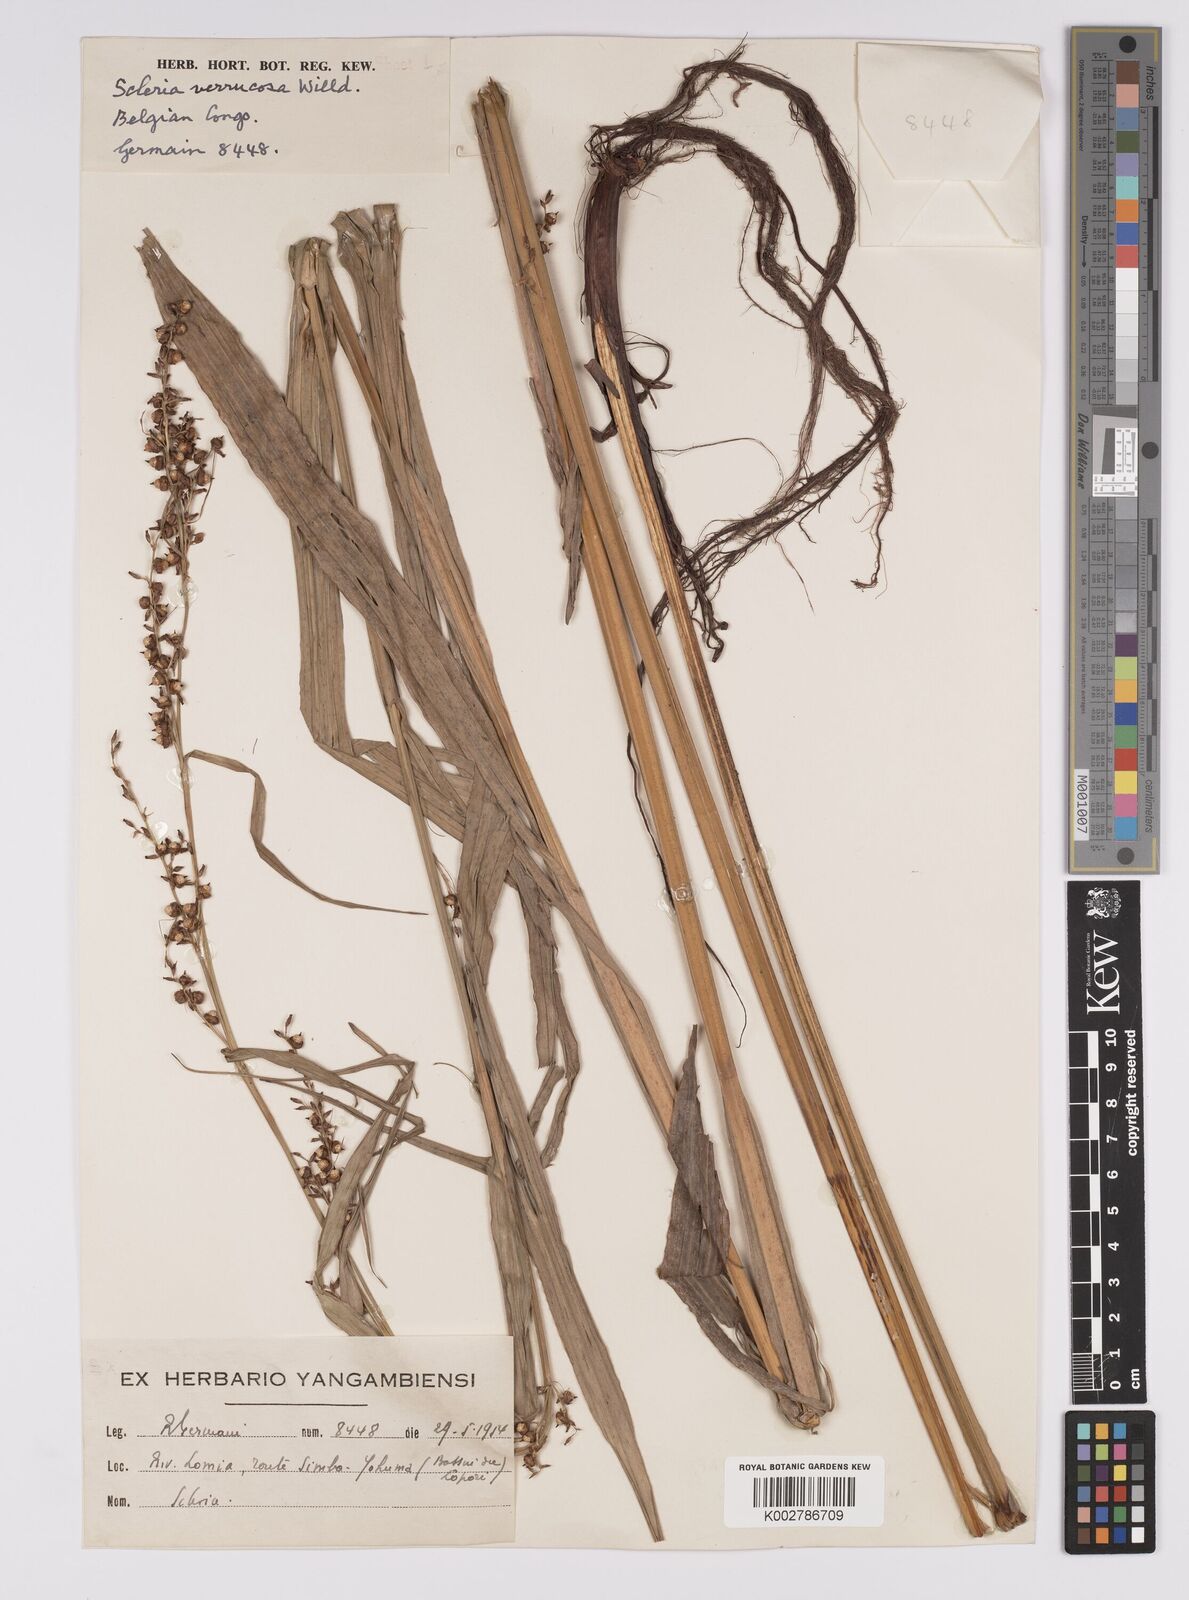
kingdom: Plantae
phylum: Tracheophyta
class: Liliopsida
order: Poales
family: Cyperaceae
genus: Scleria
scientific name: Scleria verrucosa
